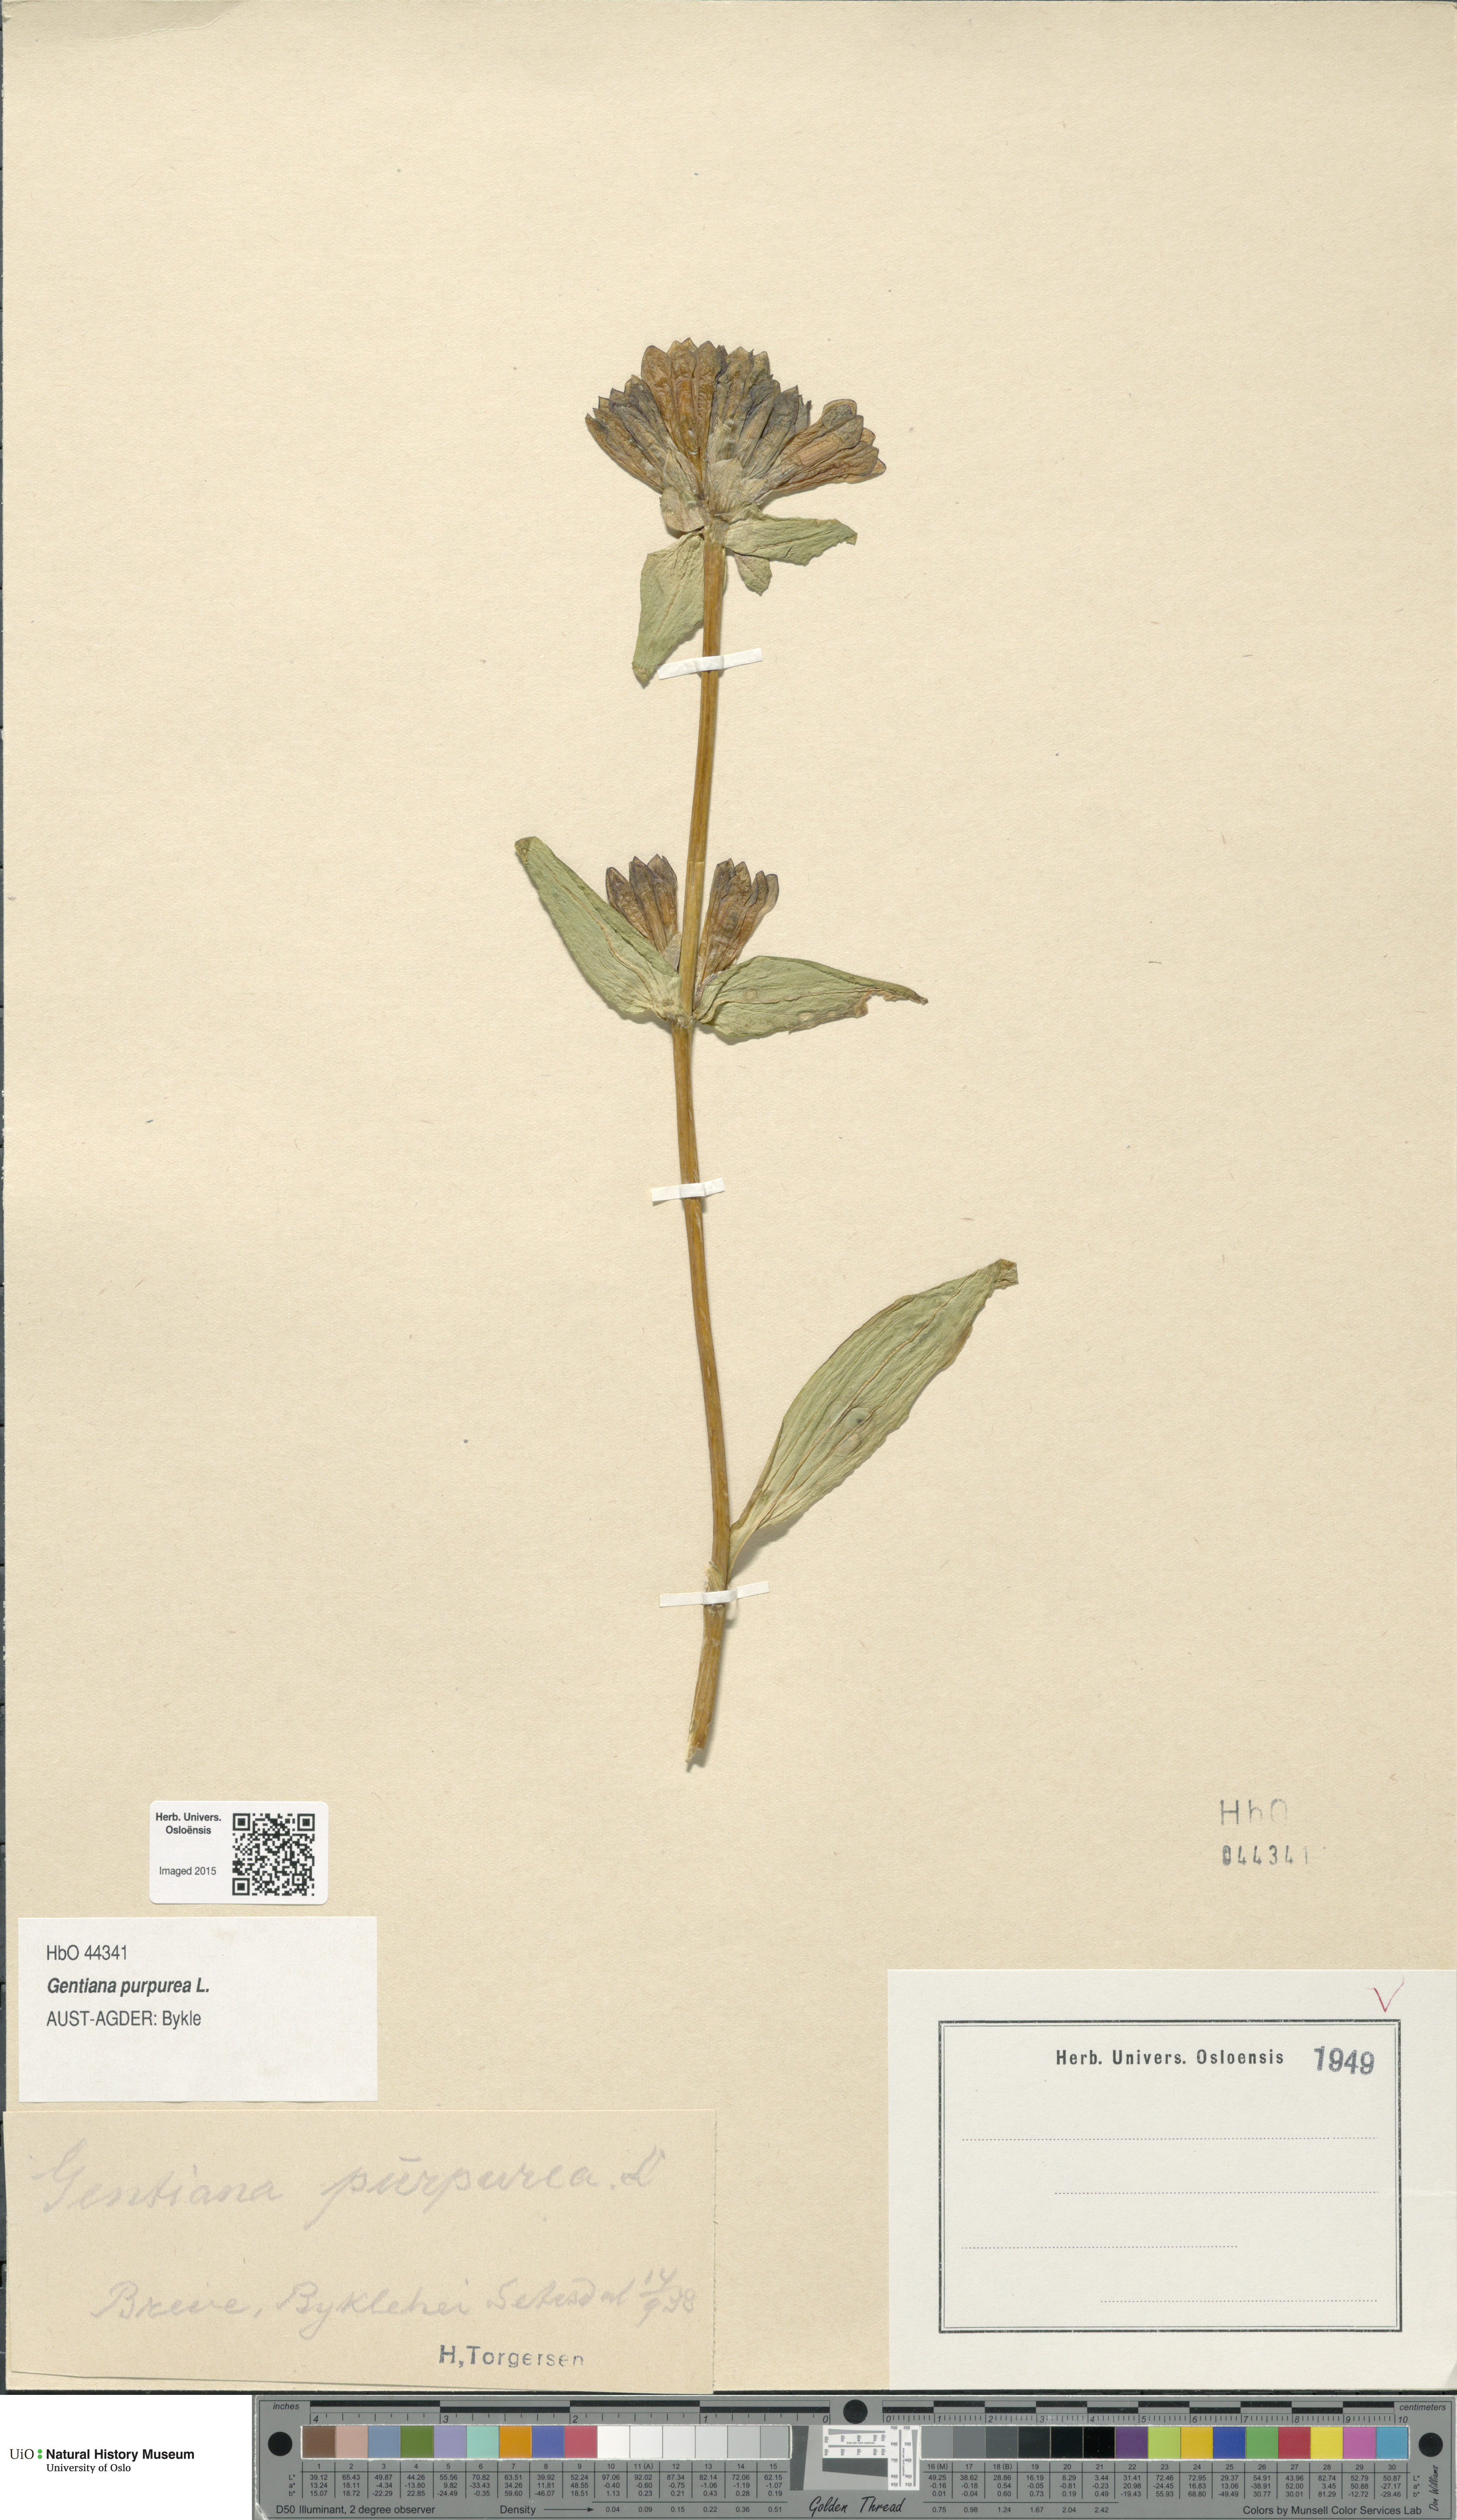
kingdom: Plantae
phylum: Tracheophyta
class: Magnoliopsida
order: Gentianales
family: Gentianaceae
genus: Gentiana
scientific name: Gentiana purpurea
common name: Purple gentian
